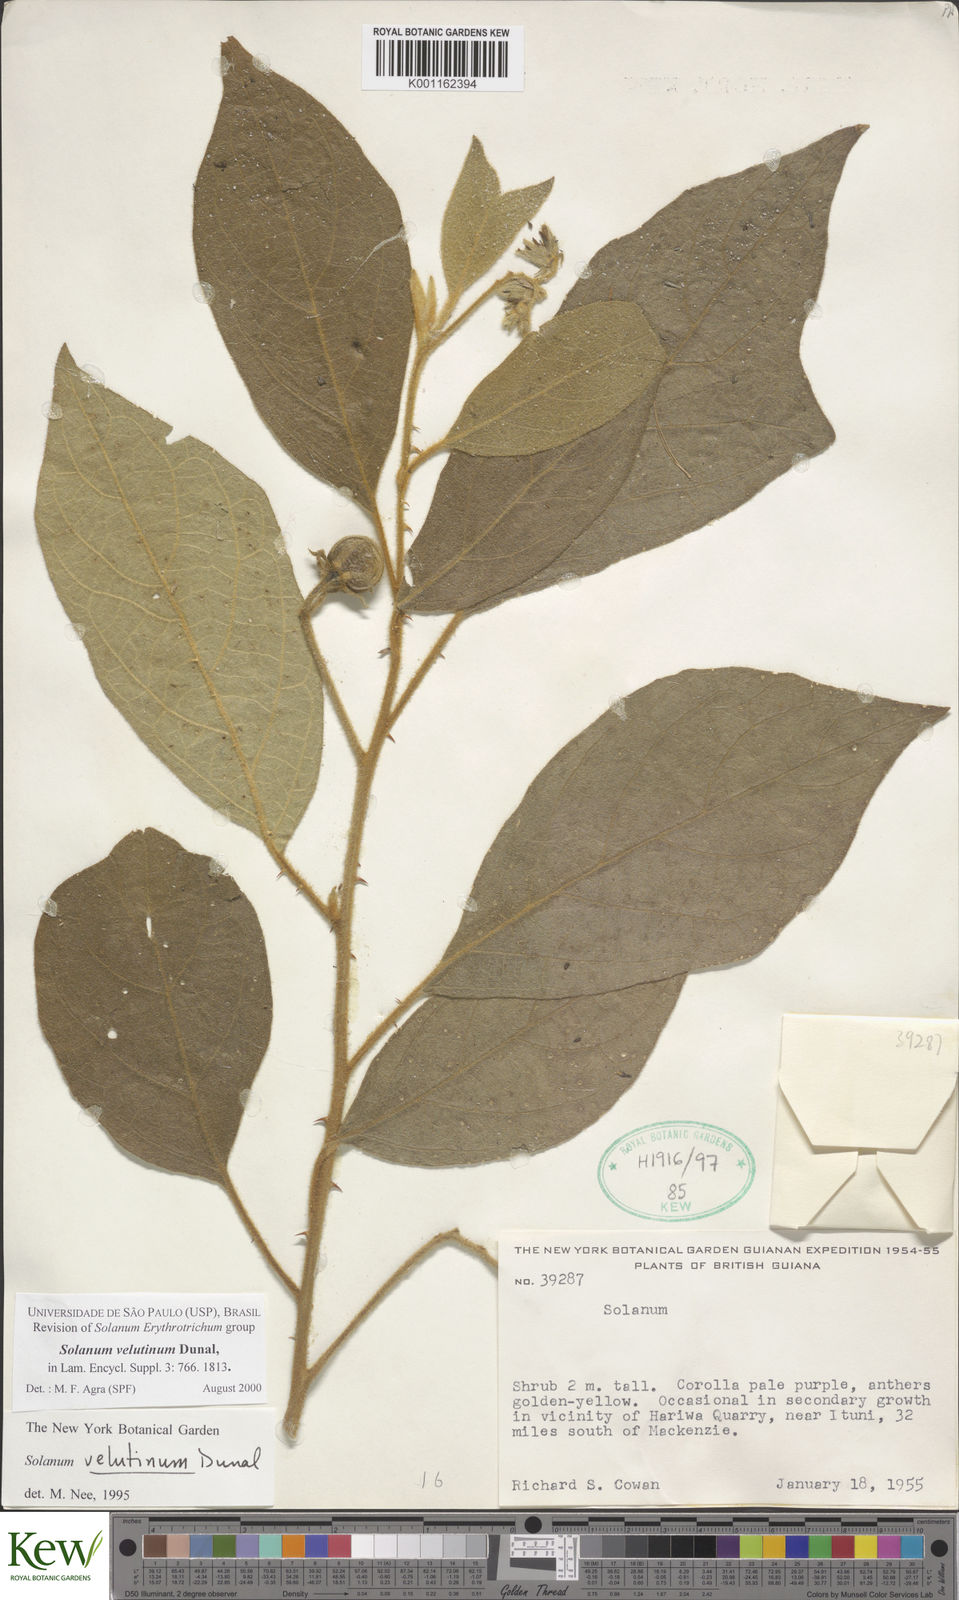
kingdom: Plantae
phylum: Tracheophyta
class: Magnoliopsida
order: Solanales
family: Solanaceae
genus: Solanum
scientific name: Solanum velutinum
